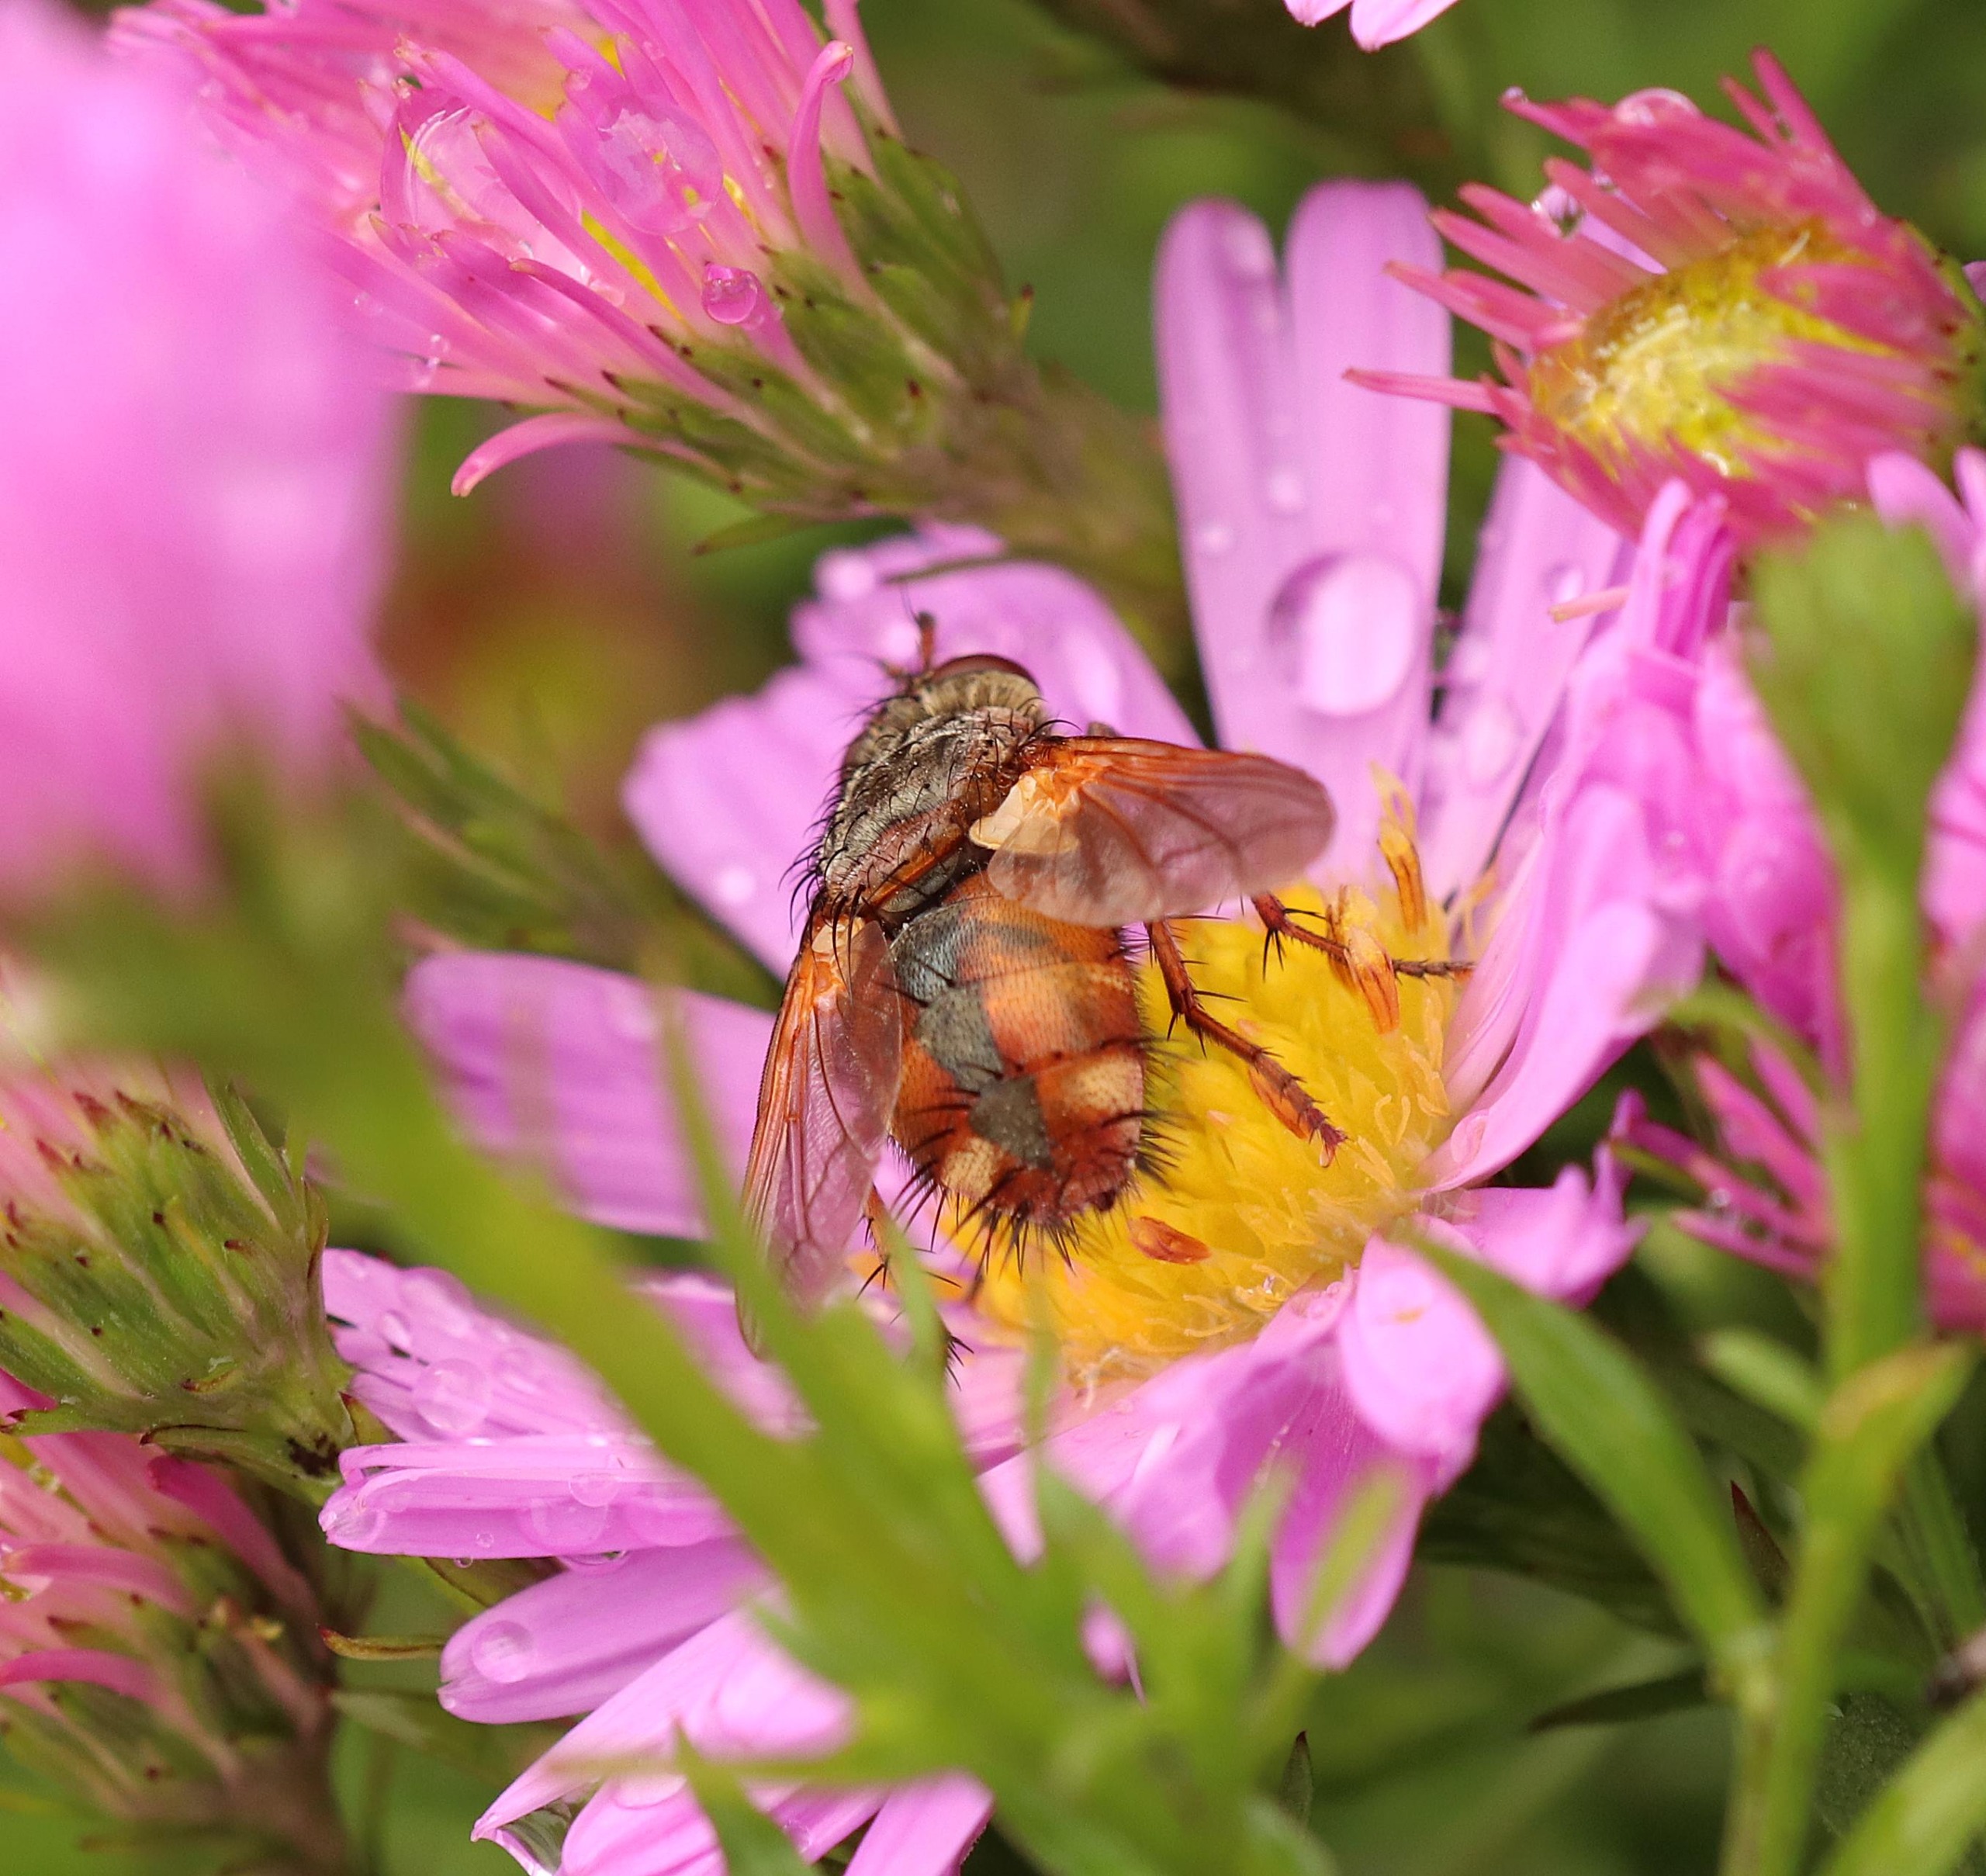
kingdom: Animalia
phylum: Arthropoda
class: Insecta
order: Diptera
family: Tachinidae
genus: Tachina
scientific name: Tachina fera
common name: Mellemfluen oskar
